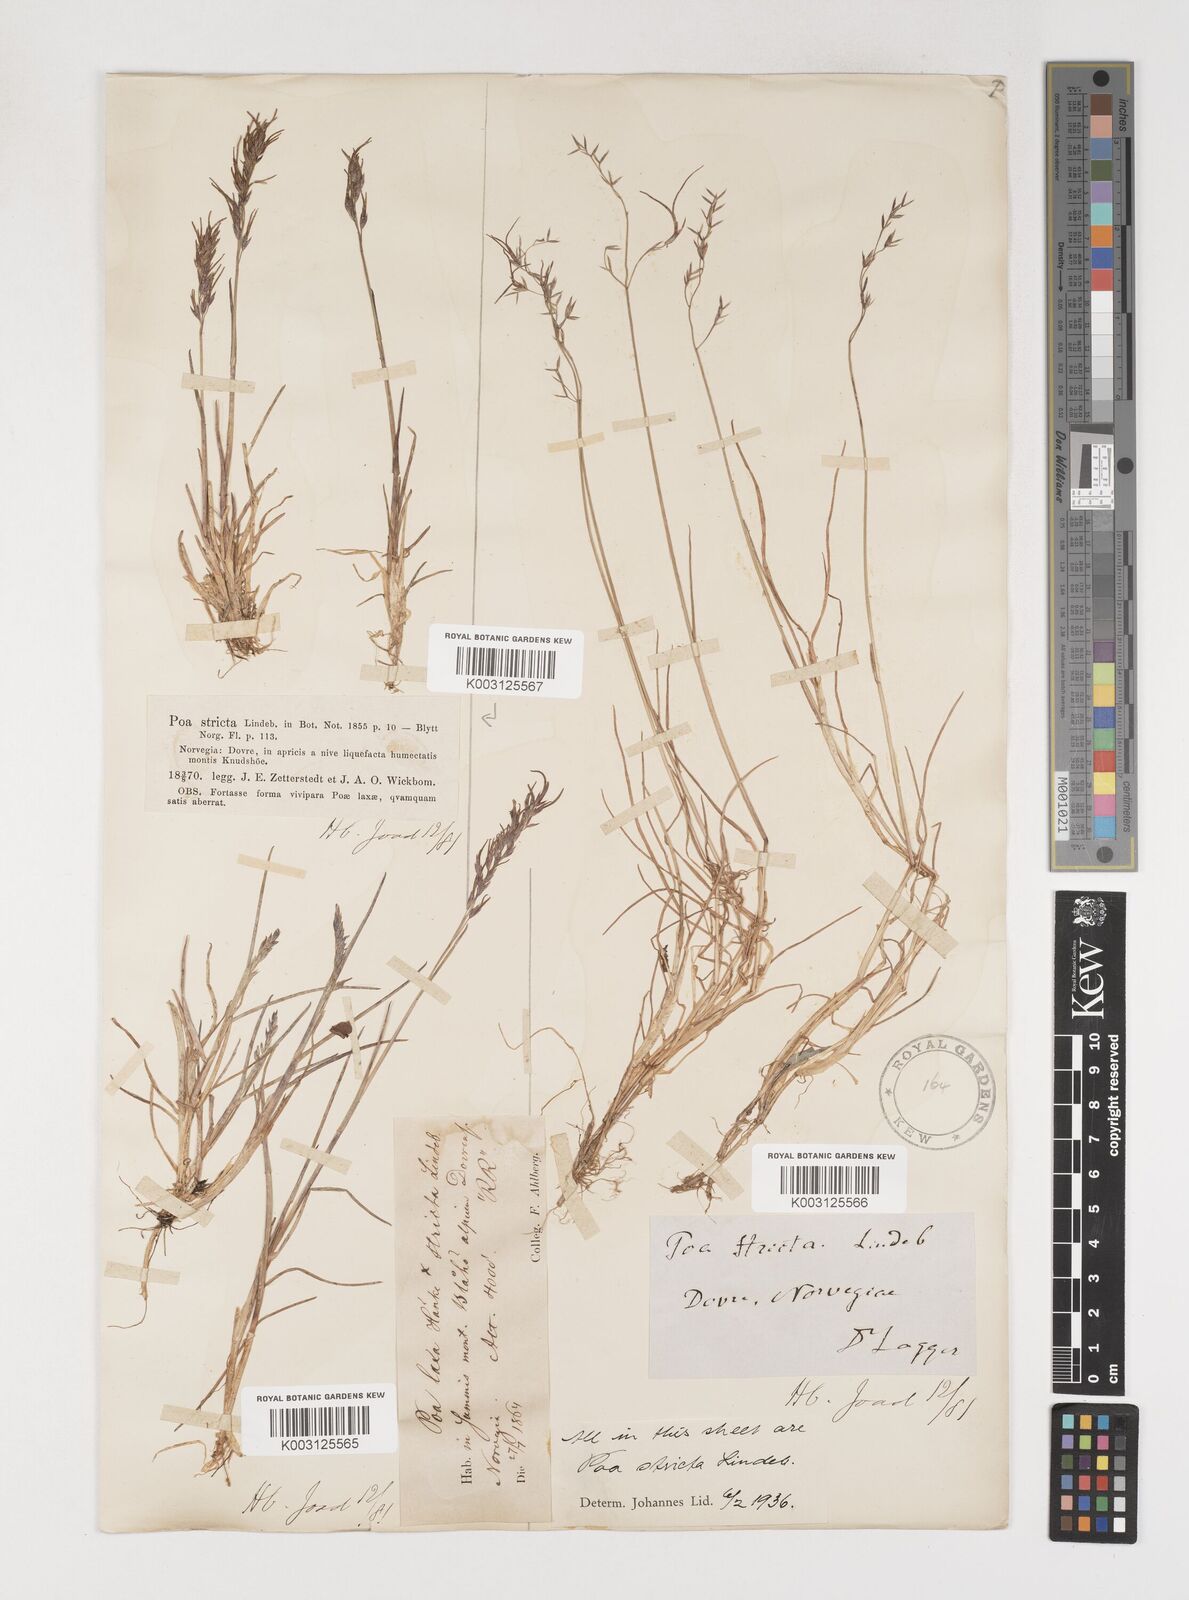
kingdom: Plantae
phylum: Tracheophyta
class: Liliopsida
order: Poales
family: Poaceae
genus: Poa
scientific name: Poa arctica
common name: Arctic bluegrass
